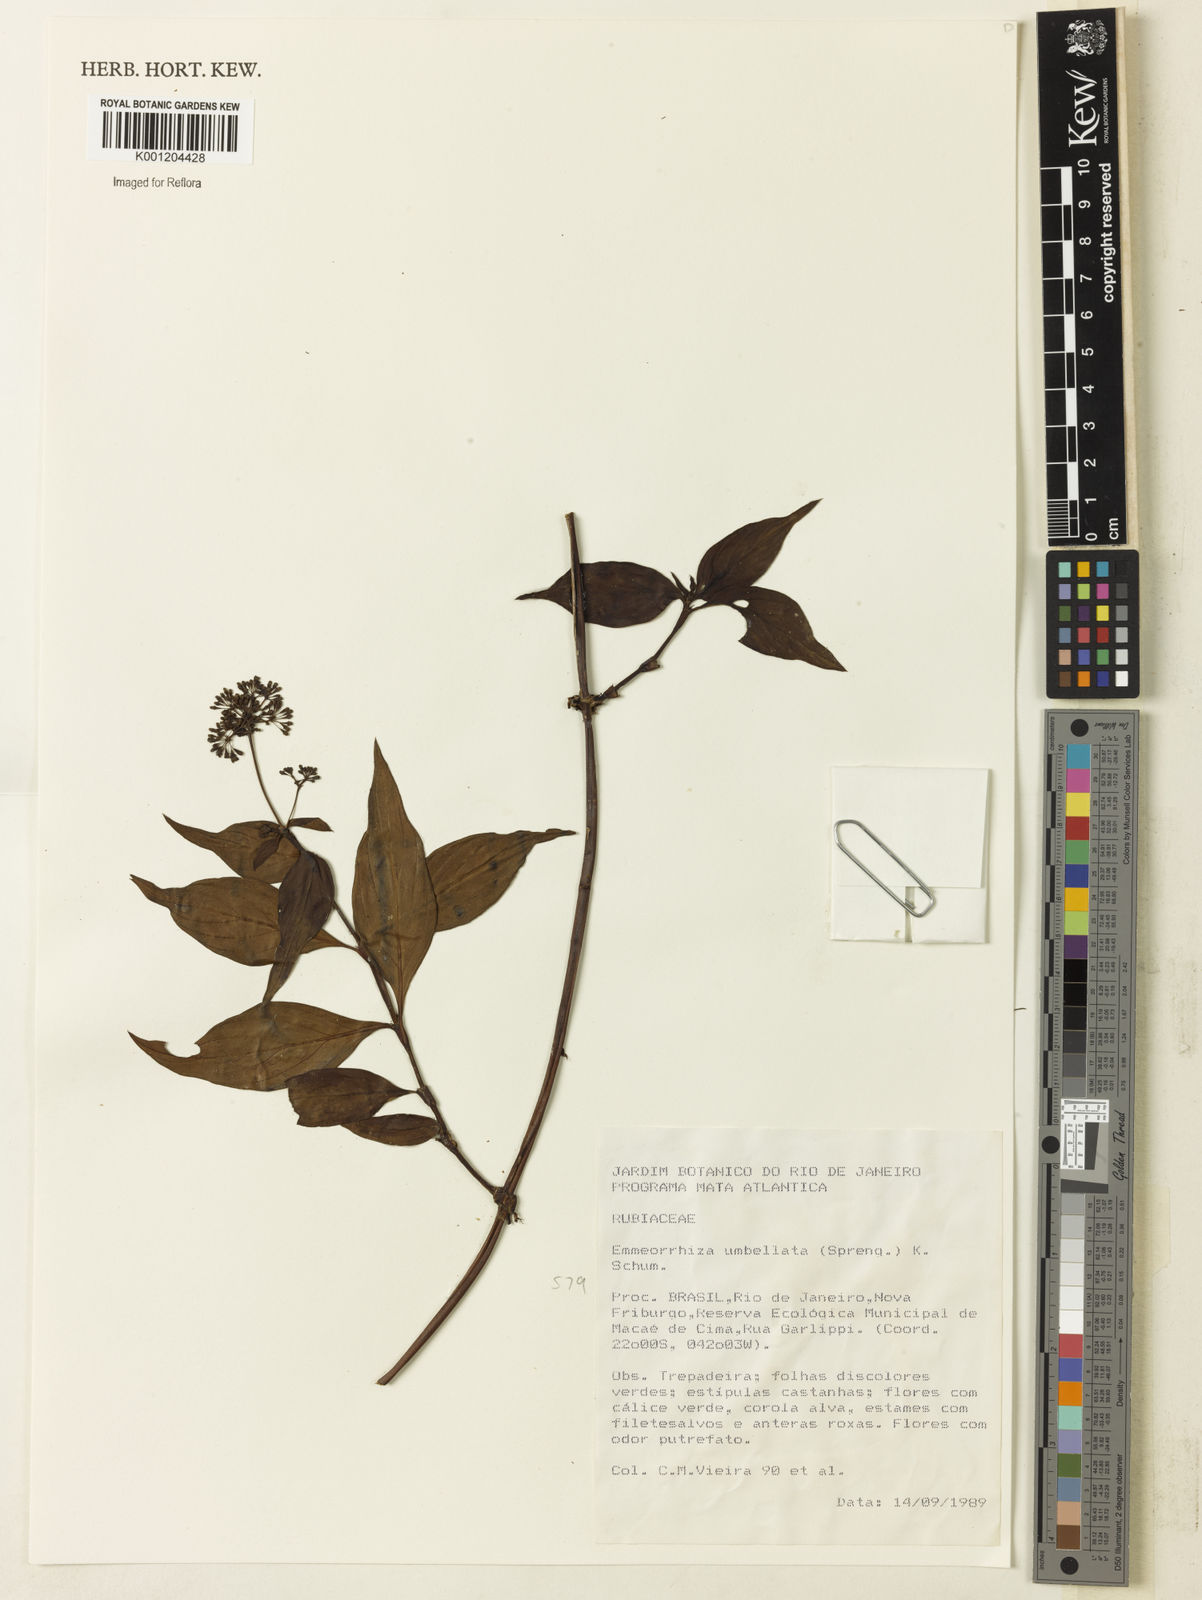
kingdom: Plantae
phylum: Tracheophyta
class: Magnoliopsida
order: Gentianales
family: Rubiaceae
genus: Emmeorhiza
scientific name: Emmeorhiza umbellata
